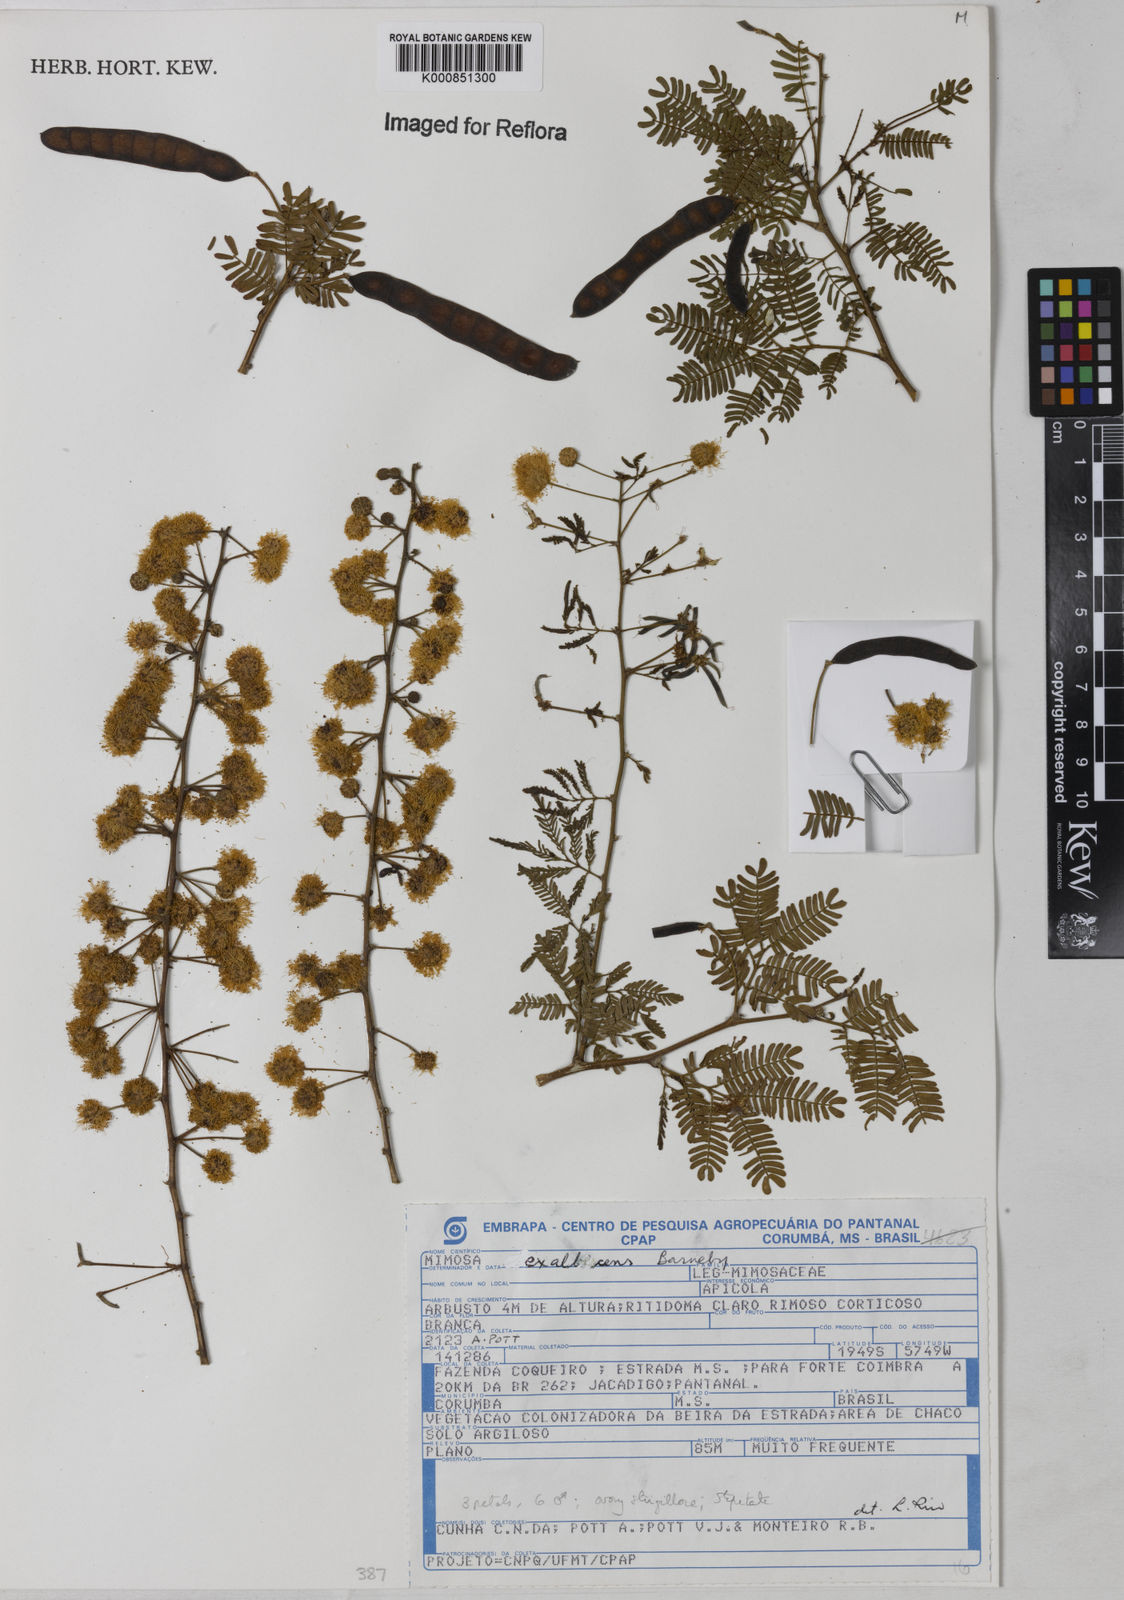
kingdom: Plantae
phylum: Tracheophyta
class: Magnoliopsida
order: Fabales
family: Fabaceae
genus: Mimosa
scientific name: Mimosa exalbescens
